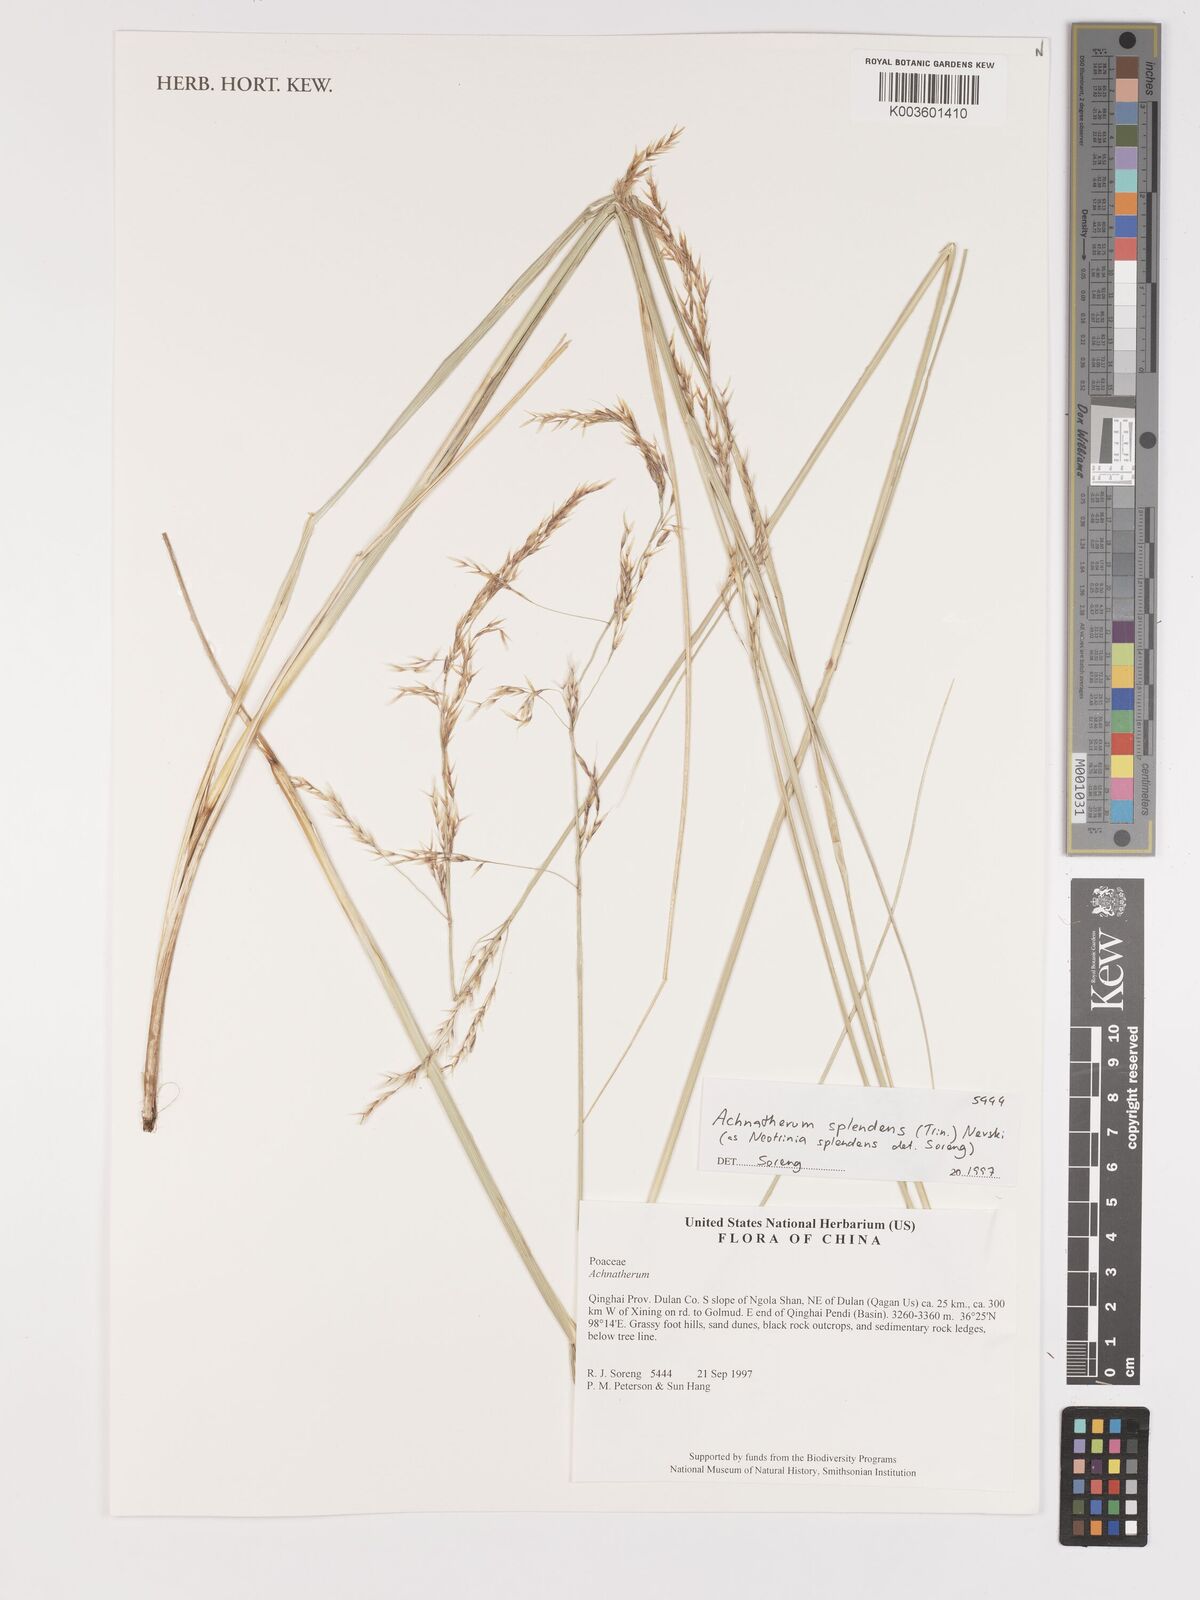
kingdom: Plantae
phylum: Tracheophyta
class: Liliopsida
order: Poales
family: Poaceae
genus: Neotrinia
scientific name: Neotrinia splendens
